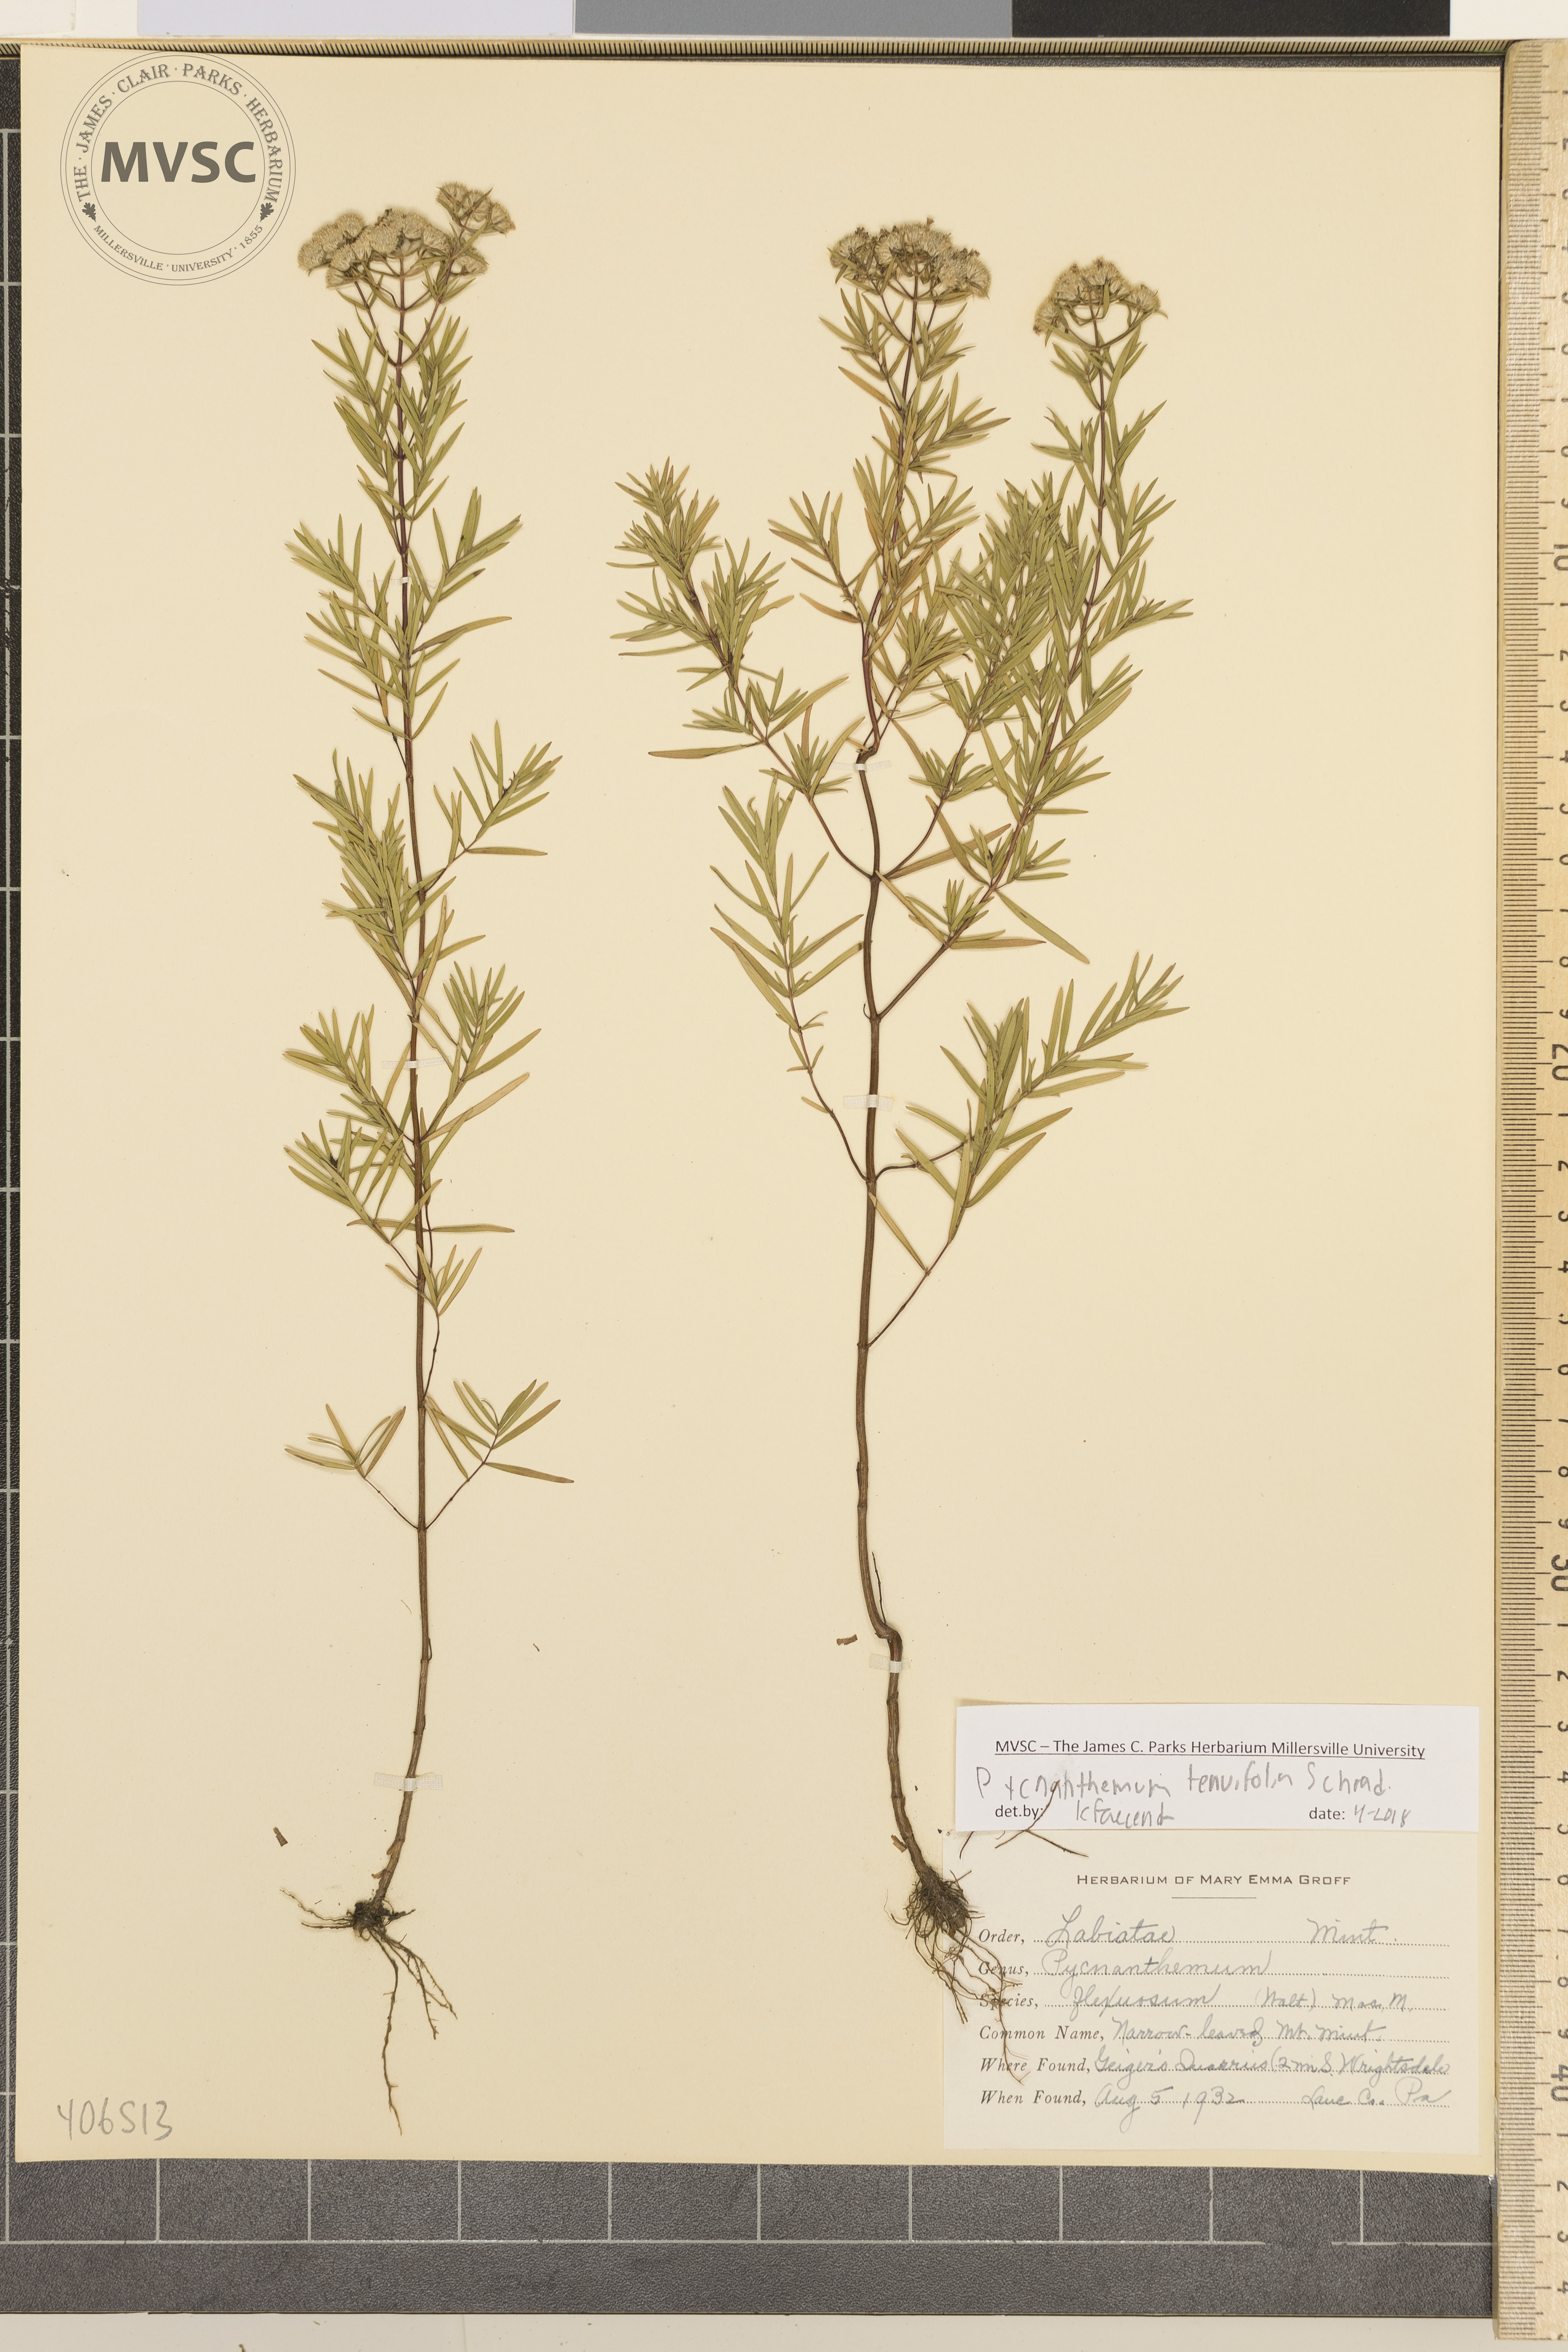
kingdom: Plantae
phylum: Tracheophyta
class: Magnoliopsida
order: Lamiales
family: Lamiaceae
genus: Pycnanthemum
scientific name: Pycnanthemum tenuifolium
